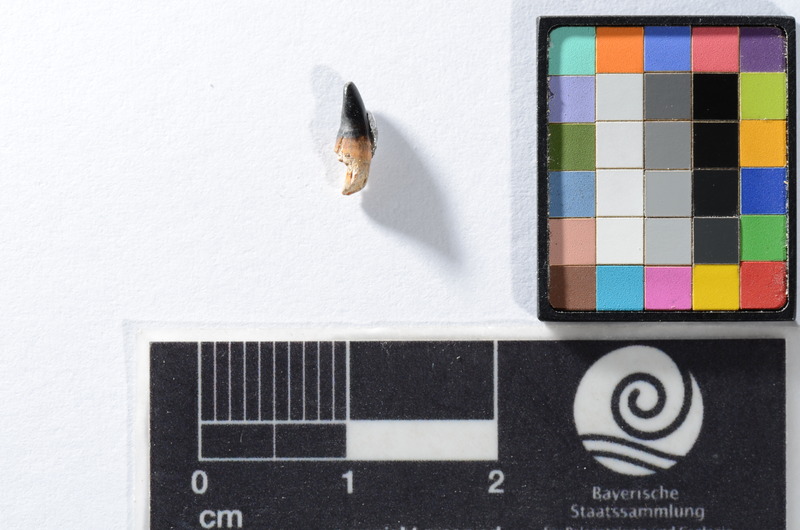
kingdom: Animalia
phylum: Chordata
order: Cypriniformes
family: Cyprinidae
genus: Capitodus
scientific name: Capitodus
